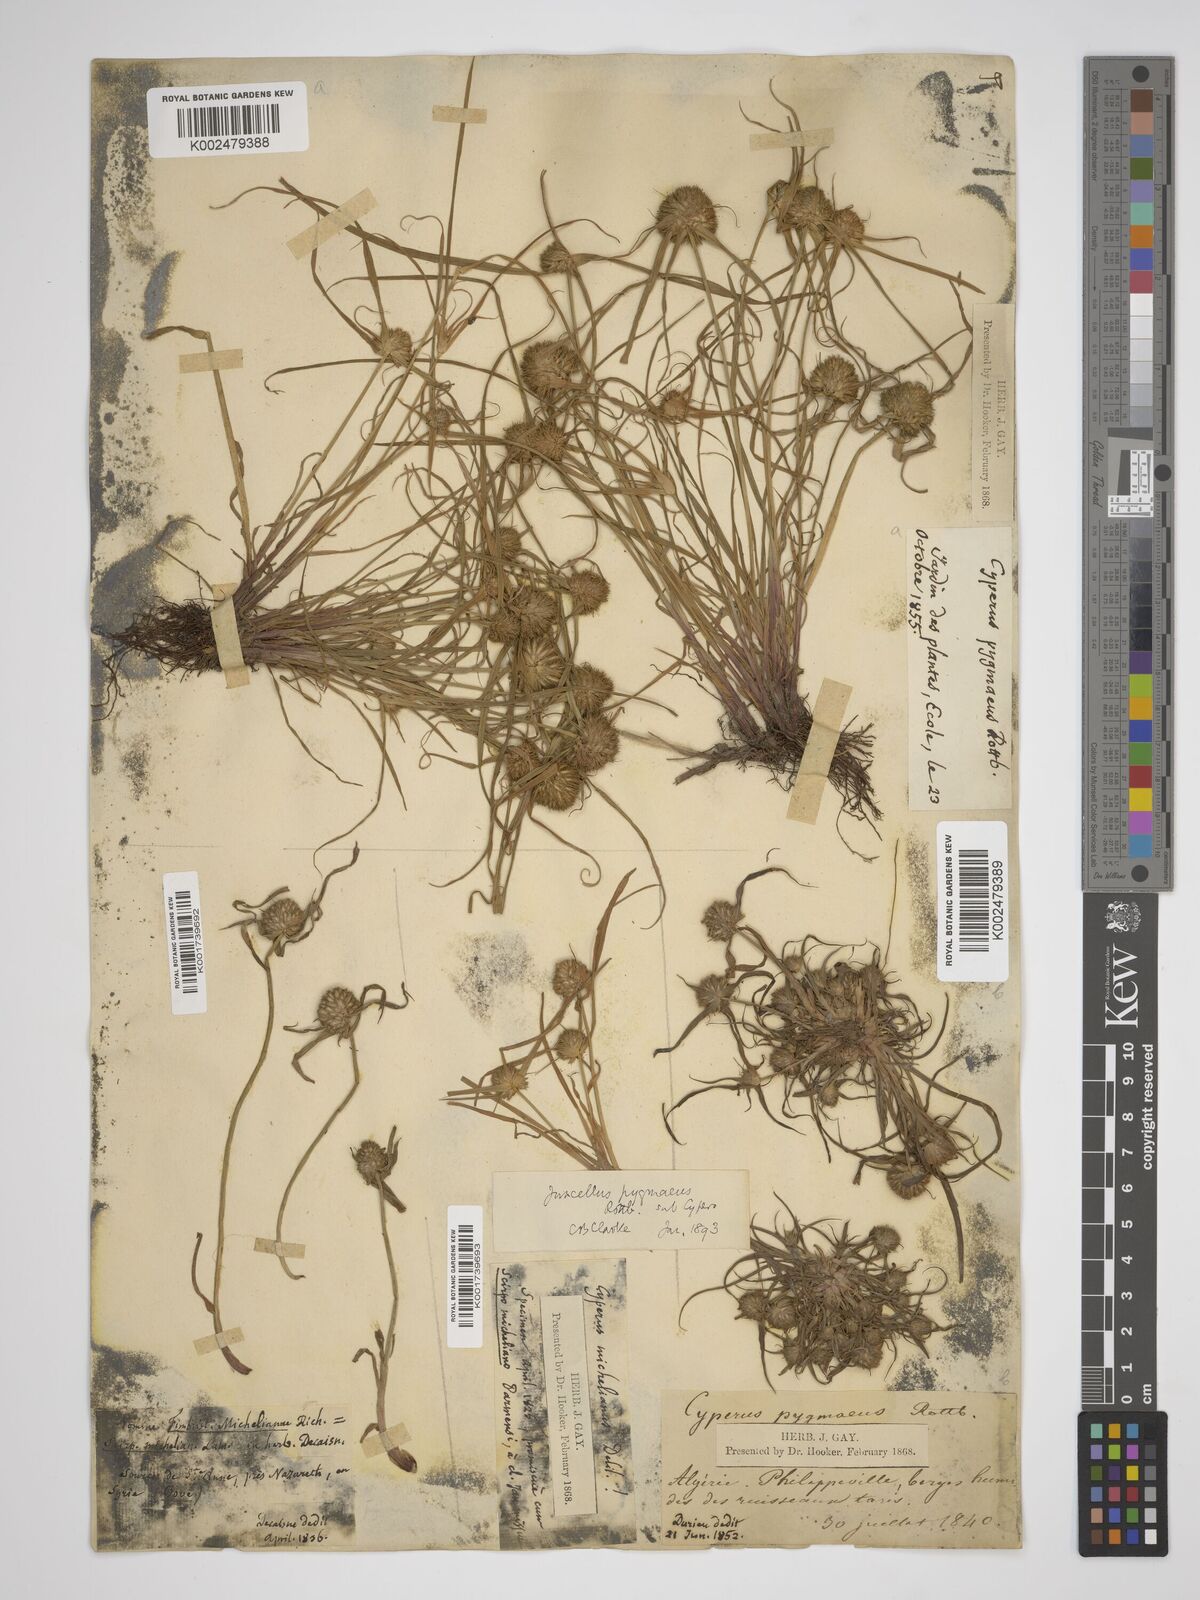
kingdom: Plantae
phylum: Tracheophyta
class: Liliopsida
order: Poales
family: Cyperaceae
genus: Cyperus
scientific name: Cyperus michelianus
